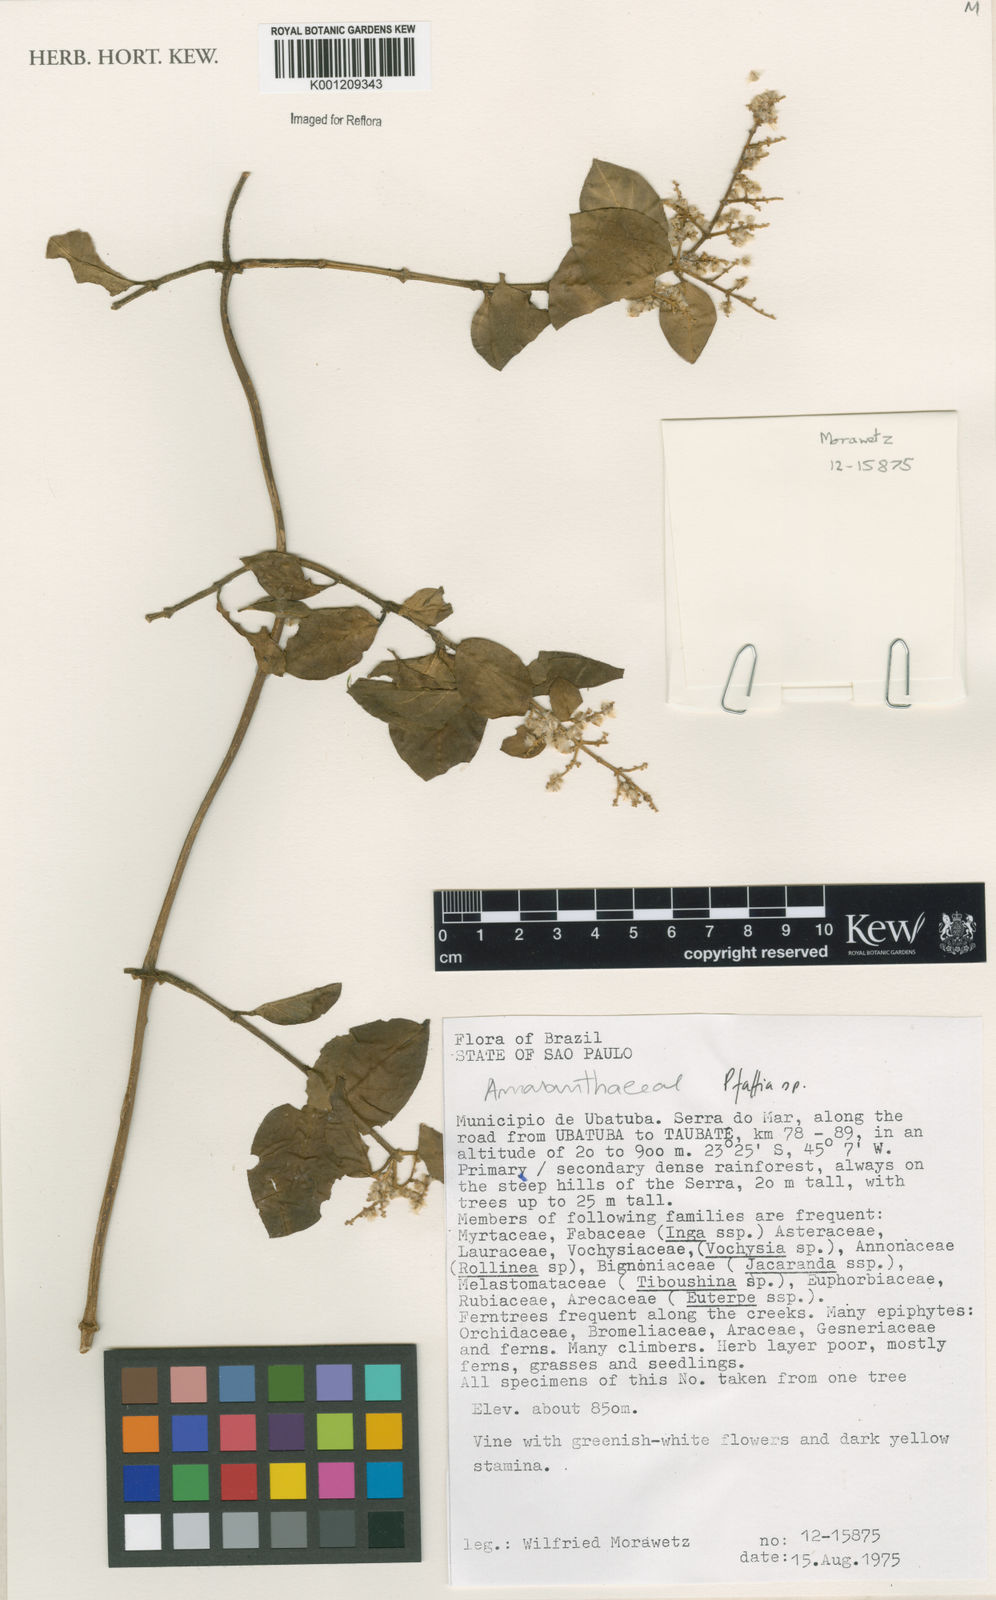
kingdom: Plantae
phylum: Tracheophyta
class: Magnoliopsida
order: Caryophyllales
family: Amaranthaceae
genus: Pfaffia
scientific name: Pfaffia
